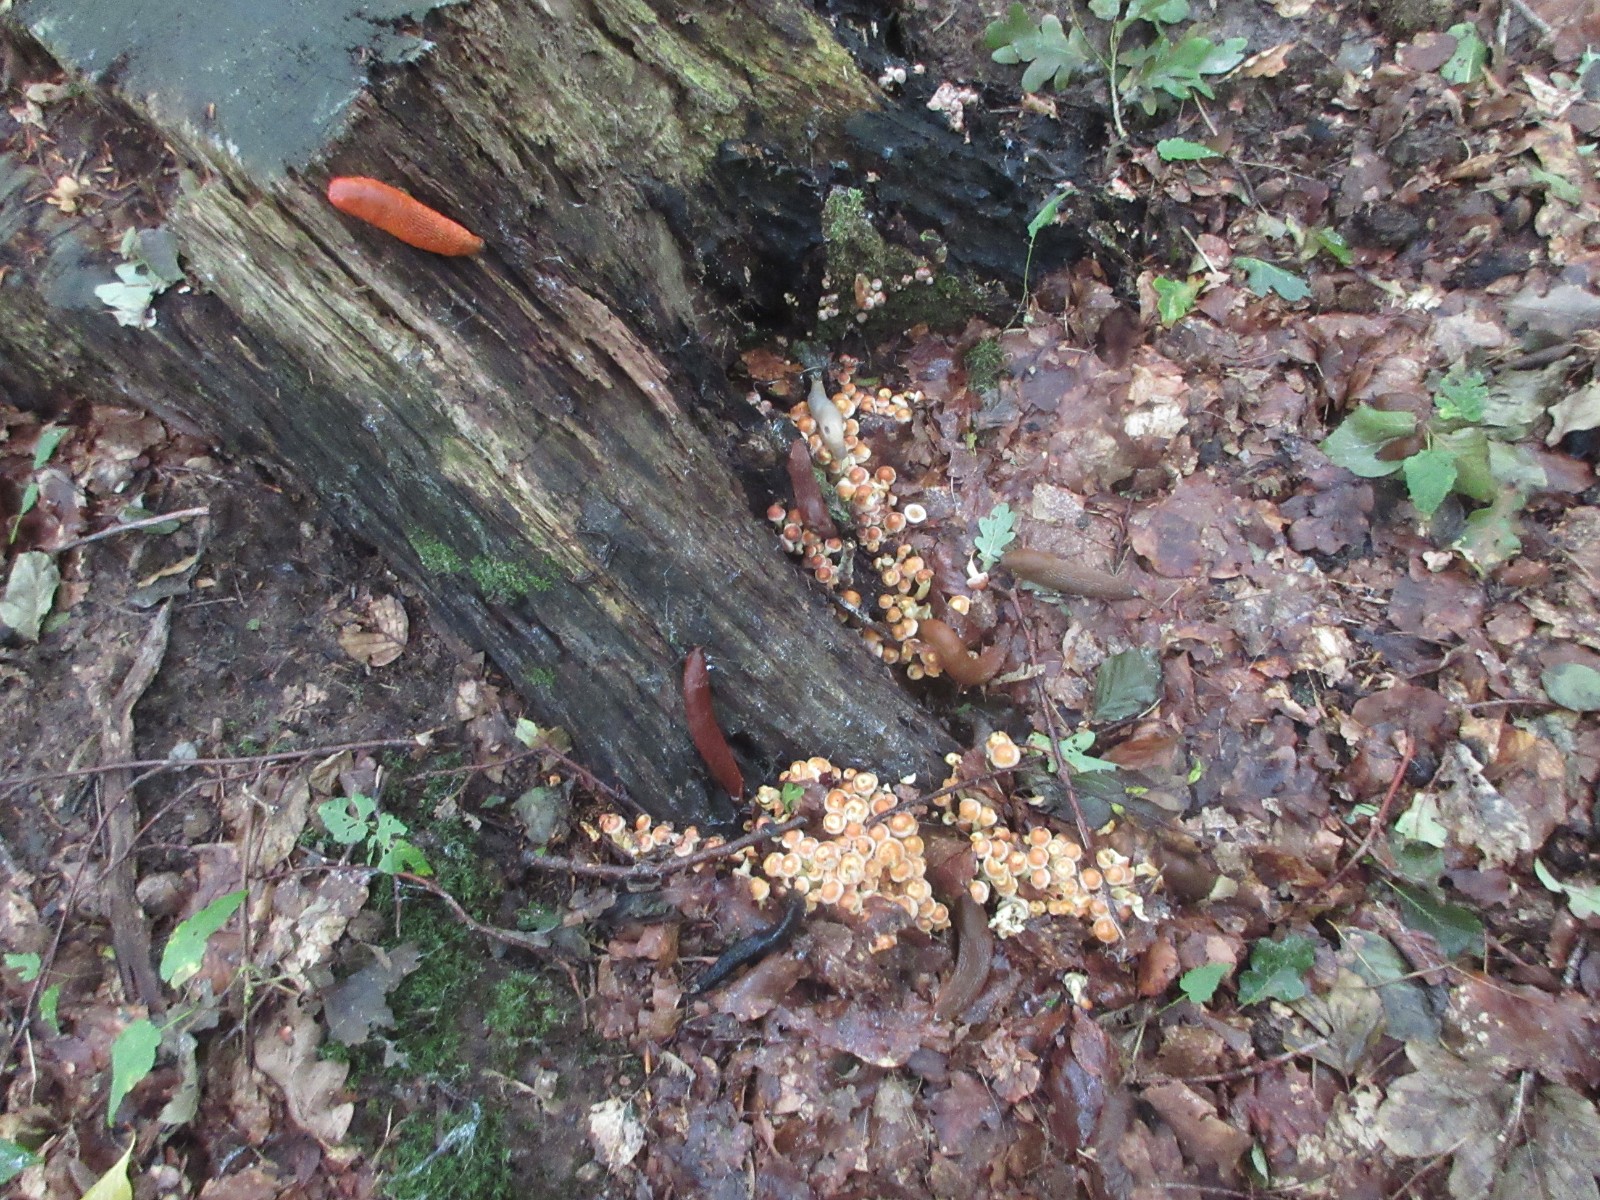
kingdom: Fungi
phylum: Basidiomycota
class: Agaricomycetes
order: Agaricales
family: Strophariaceae
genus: Hypholoma
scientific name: Hypholoma fasciculare
